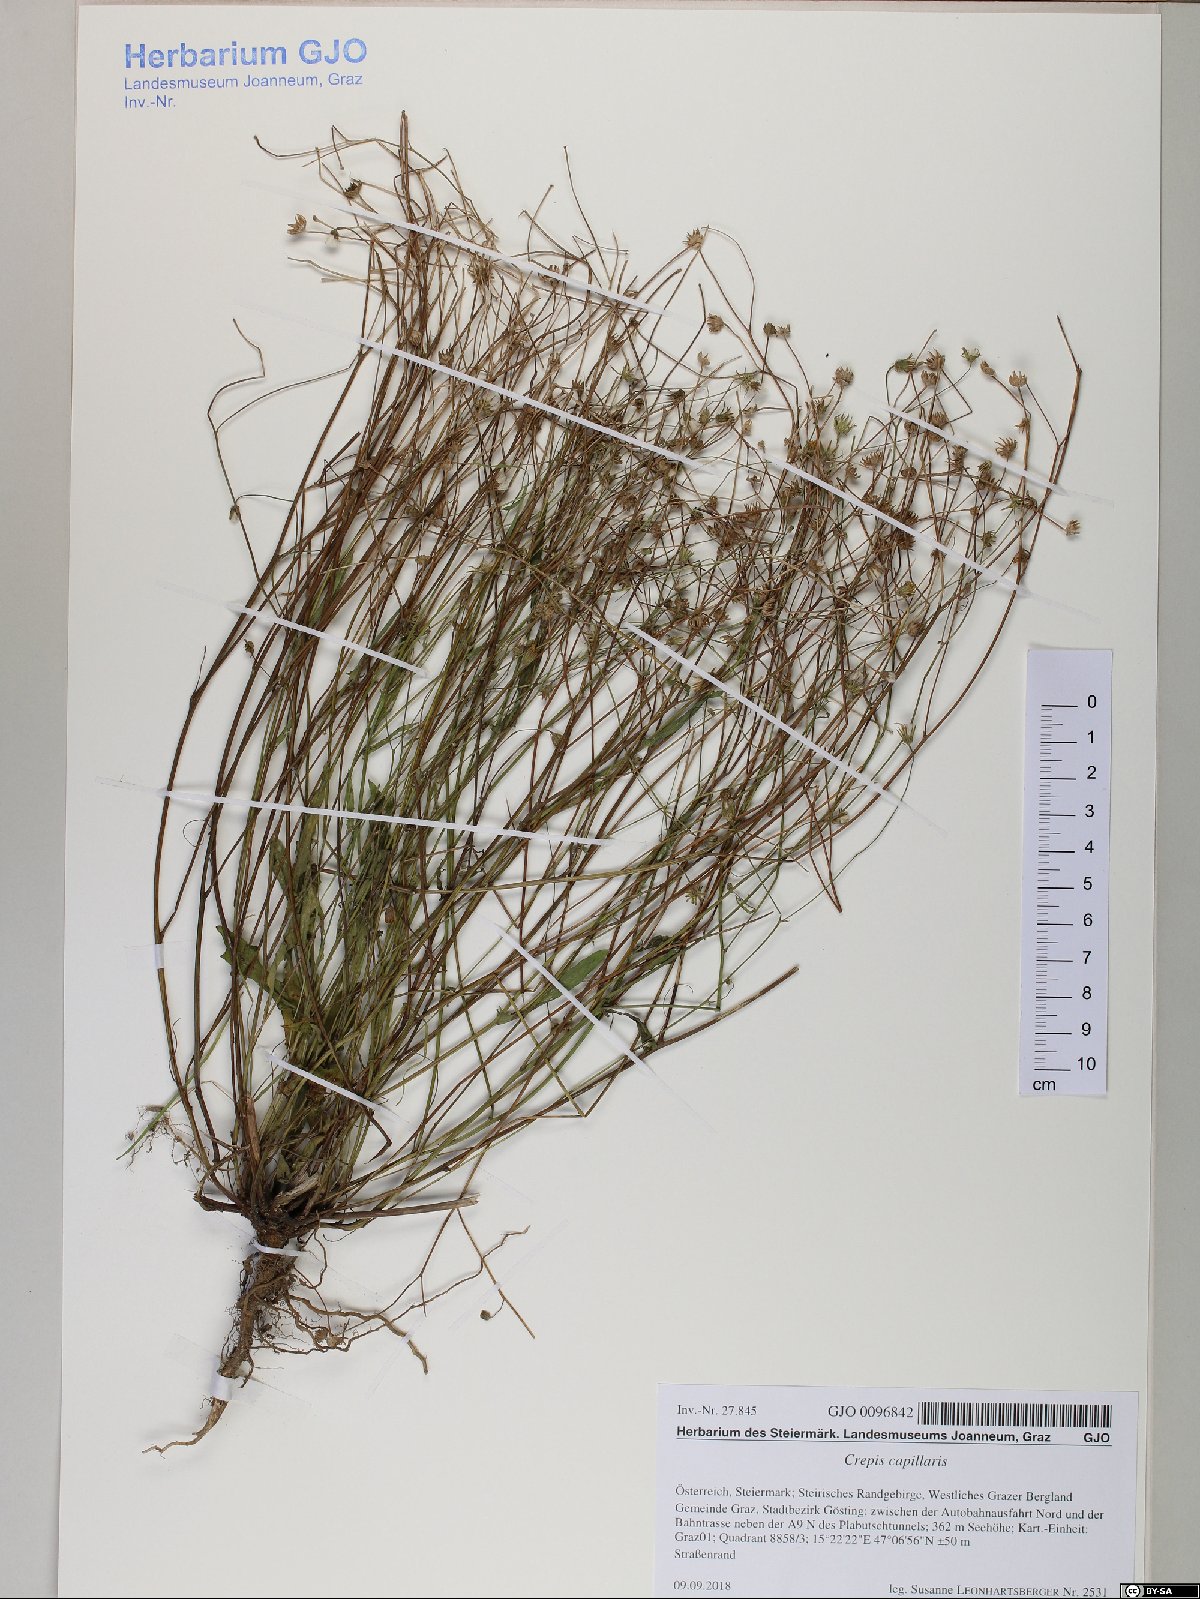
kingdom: Plantae
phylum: Tracheophyta
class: Magnoliopsida
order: Asterales
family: Asteraceae
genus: Crepis
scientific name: Crepis capillaris
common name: Smooth hawksbeard
